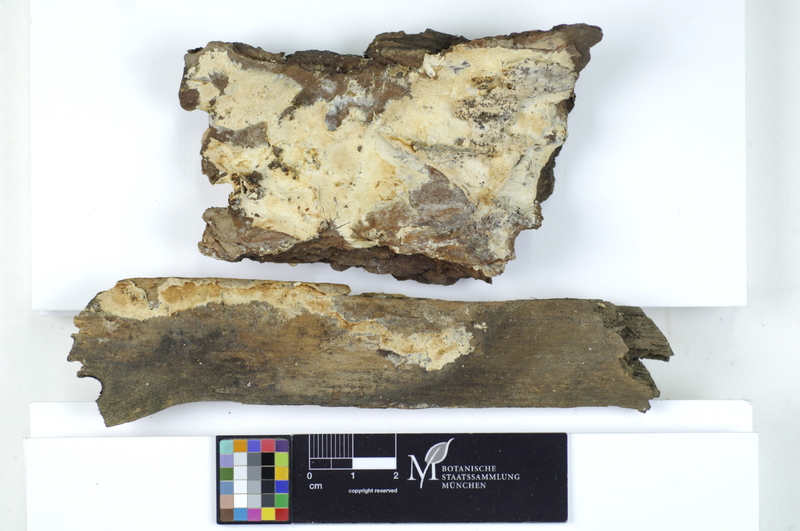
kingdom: Plantae
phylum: Tracheophyta
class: Pinopsida
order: Pinales
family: Pinaceae
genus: Pinus
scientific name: Pinus
